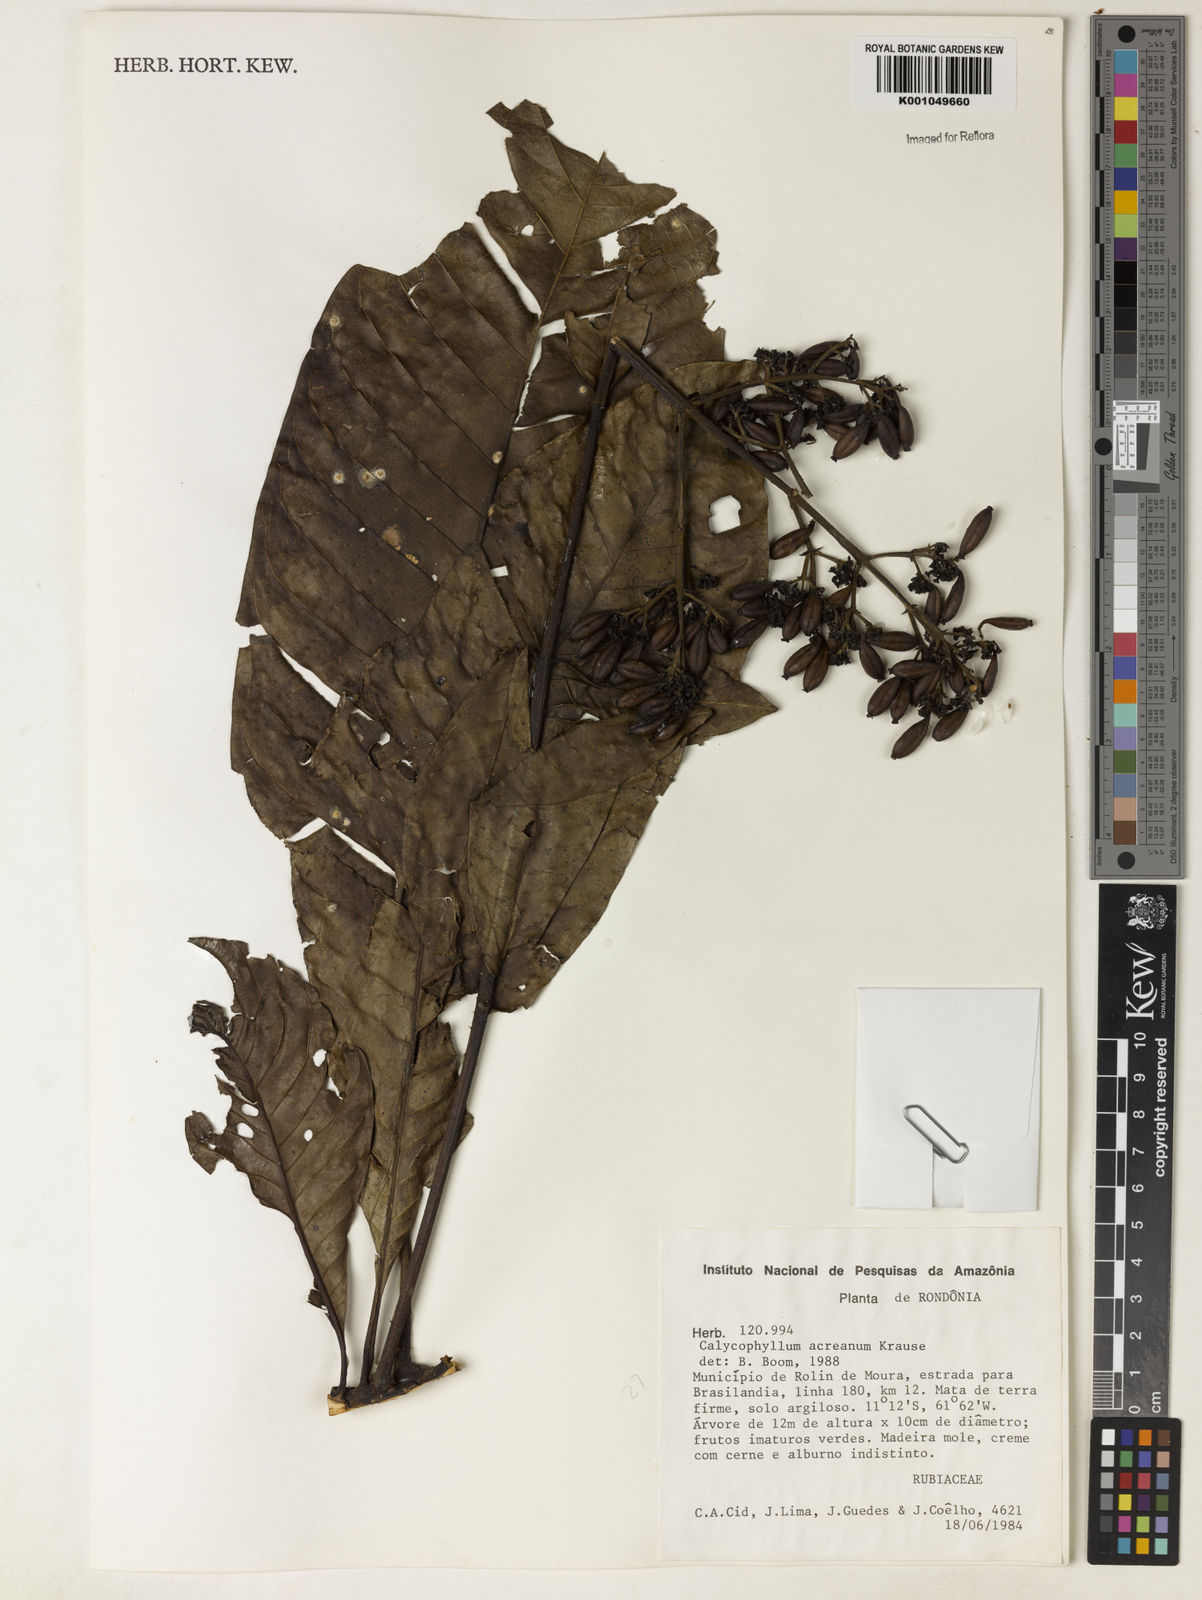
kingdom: Plantae
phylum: Tracheophyta
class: Magnoliopsida
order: Gentianales
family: Rubiaceae
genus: Calycophyllum
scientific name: Calycophyllum megistocaulum
